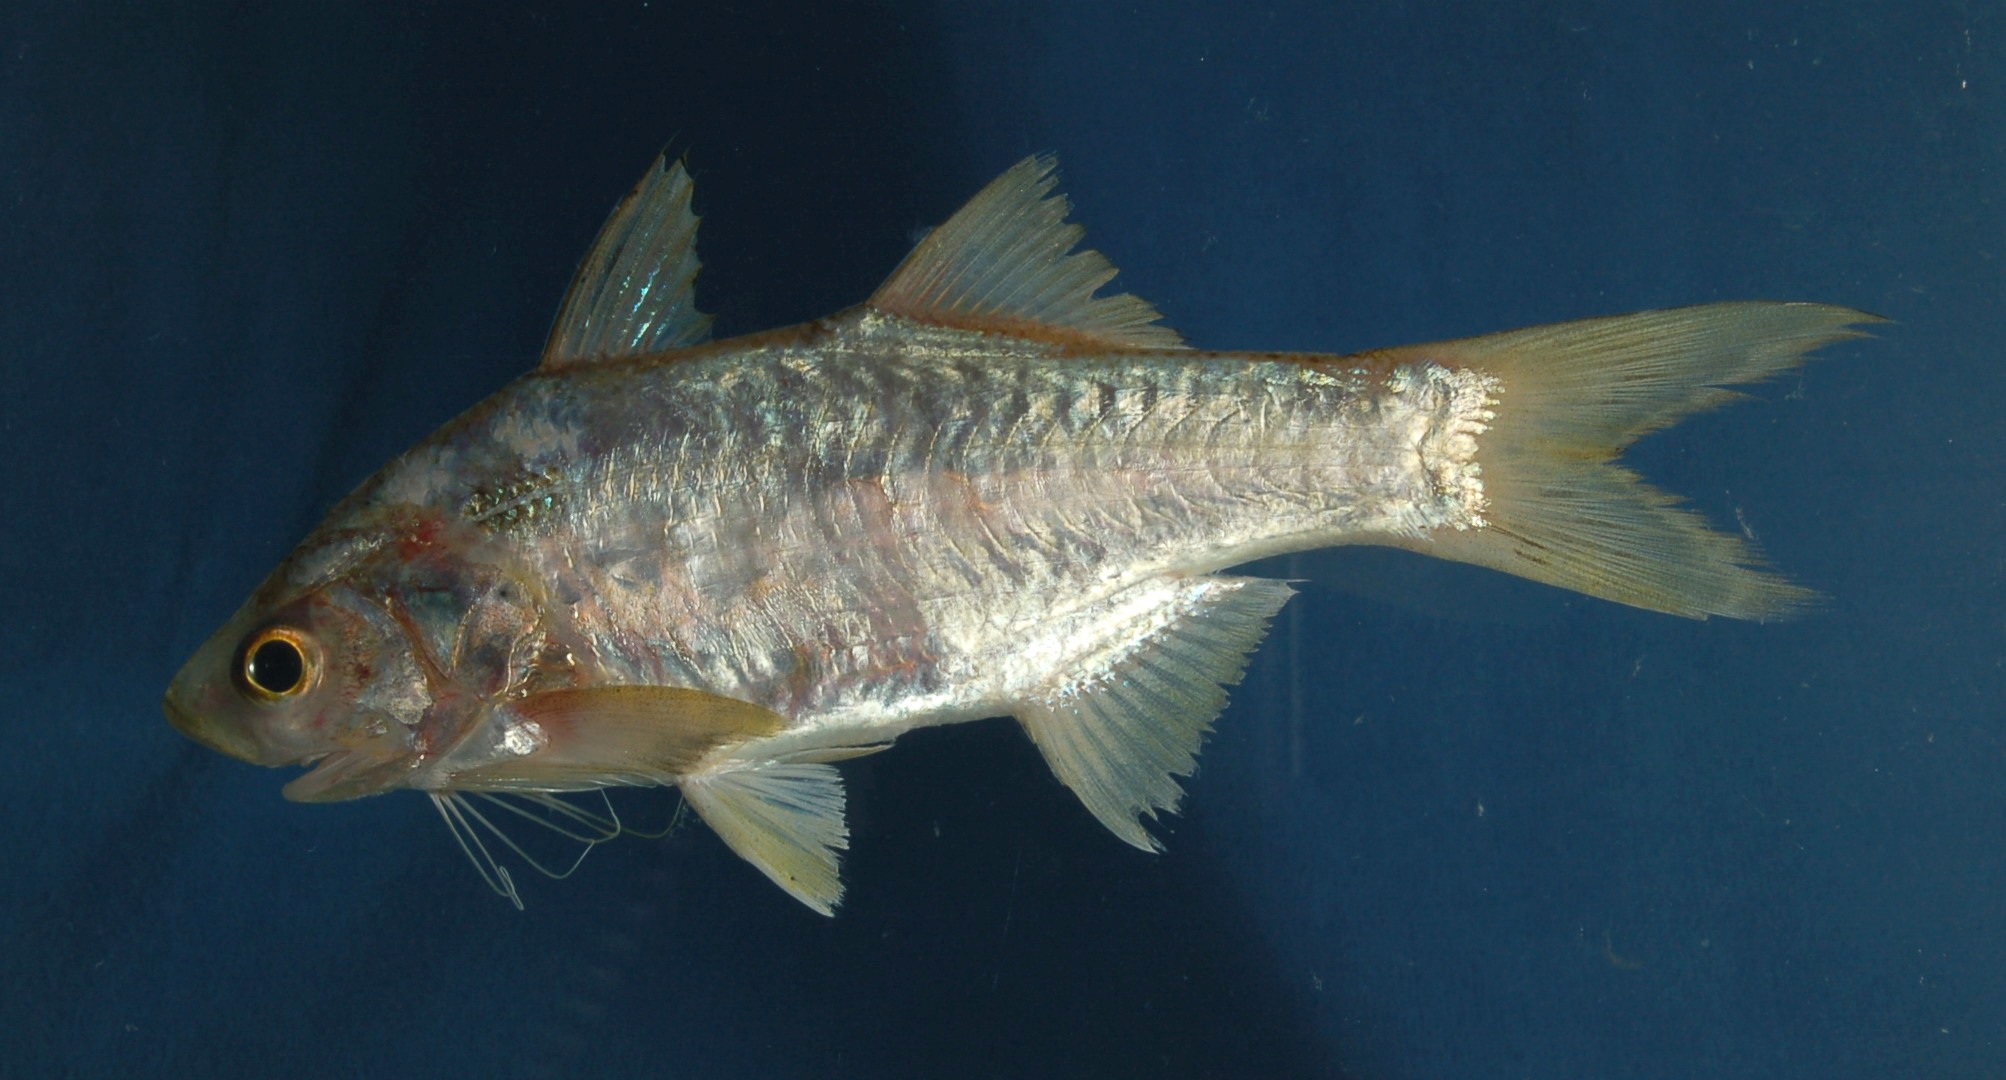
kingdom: Animalia
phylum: Chordata
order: Perciformes
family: Polynemidae
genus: Polydactylus
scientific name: Polydactylus malagasyensis
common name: African blackspot threadfin
